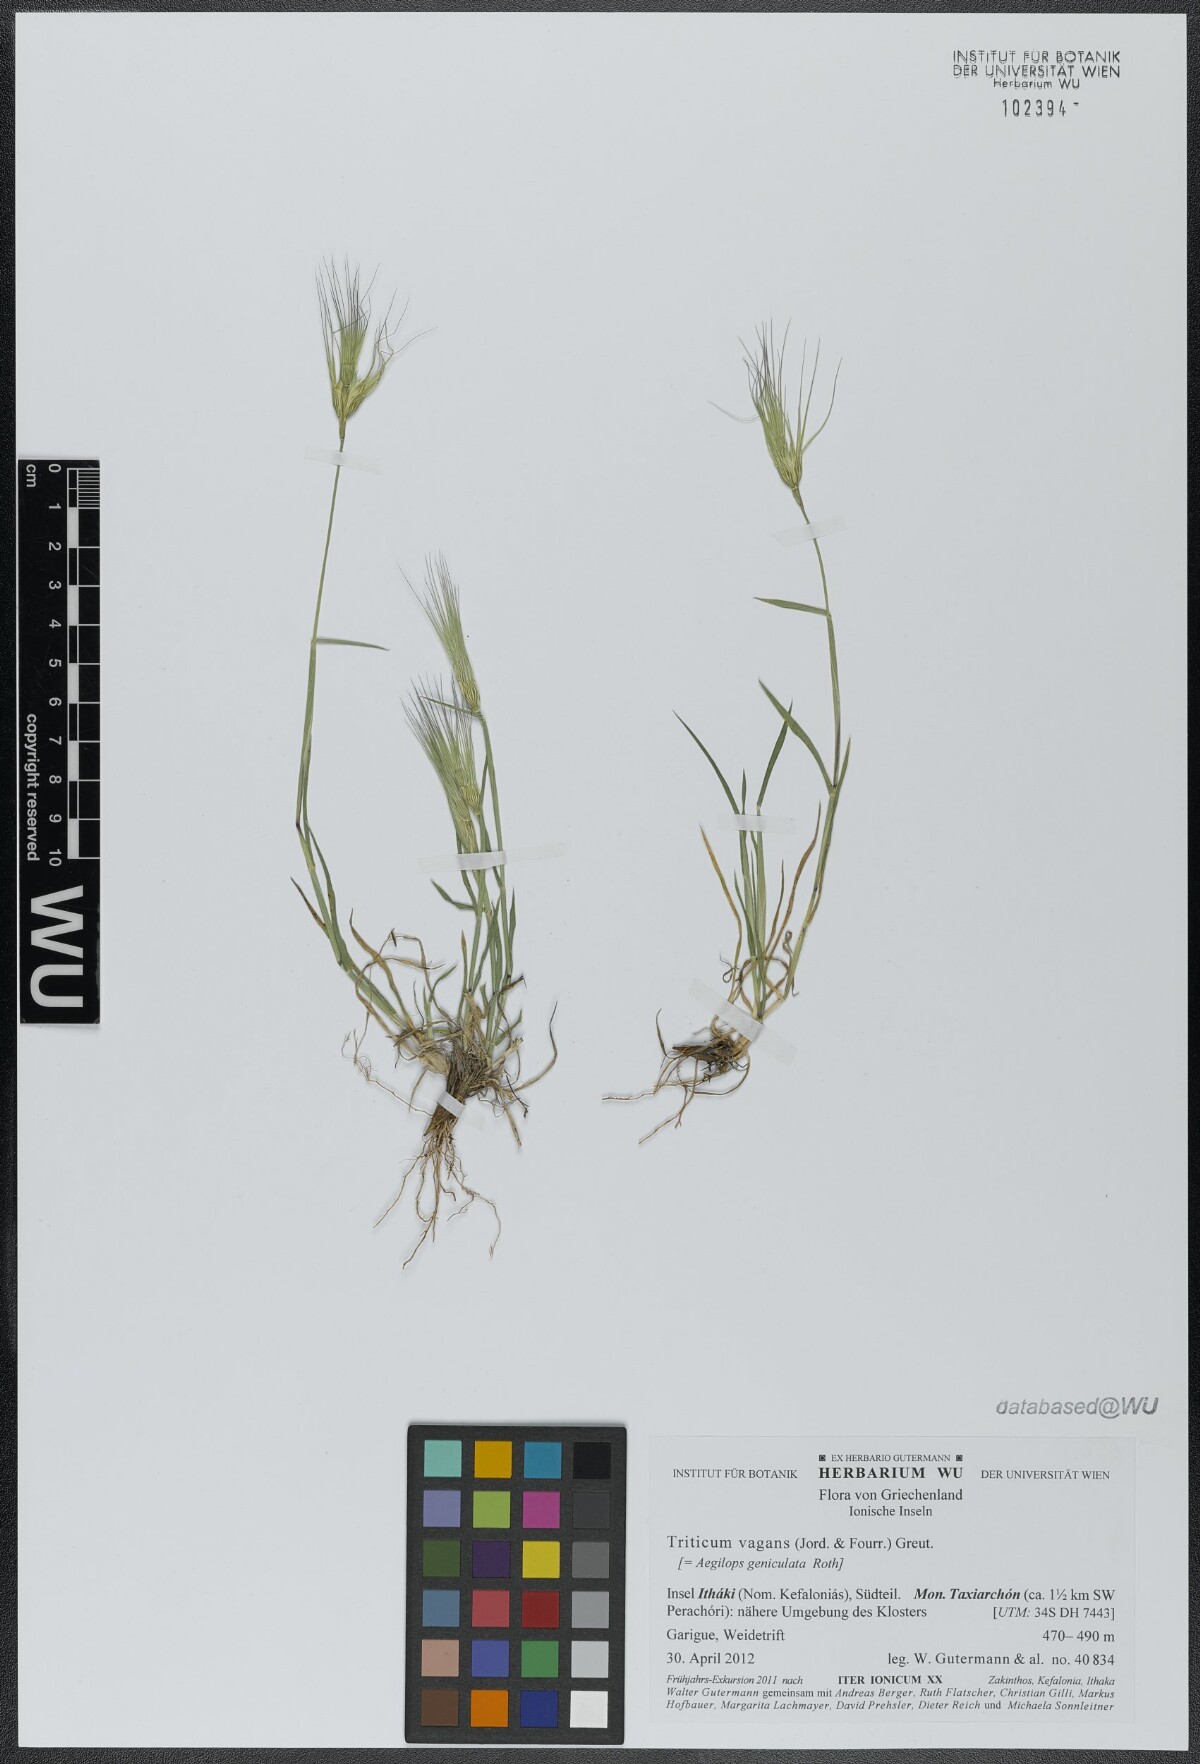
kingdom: Plantae
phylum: Tracheophyta
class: Liliopsida
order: Poales
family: Poaceae
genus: Aegilops
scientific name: Aegilops geniculata
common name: Ovate goat grass
